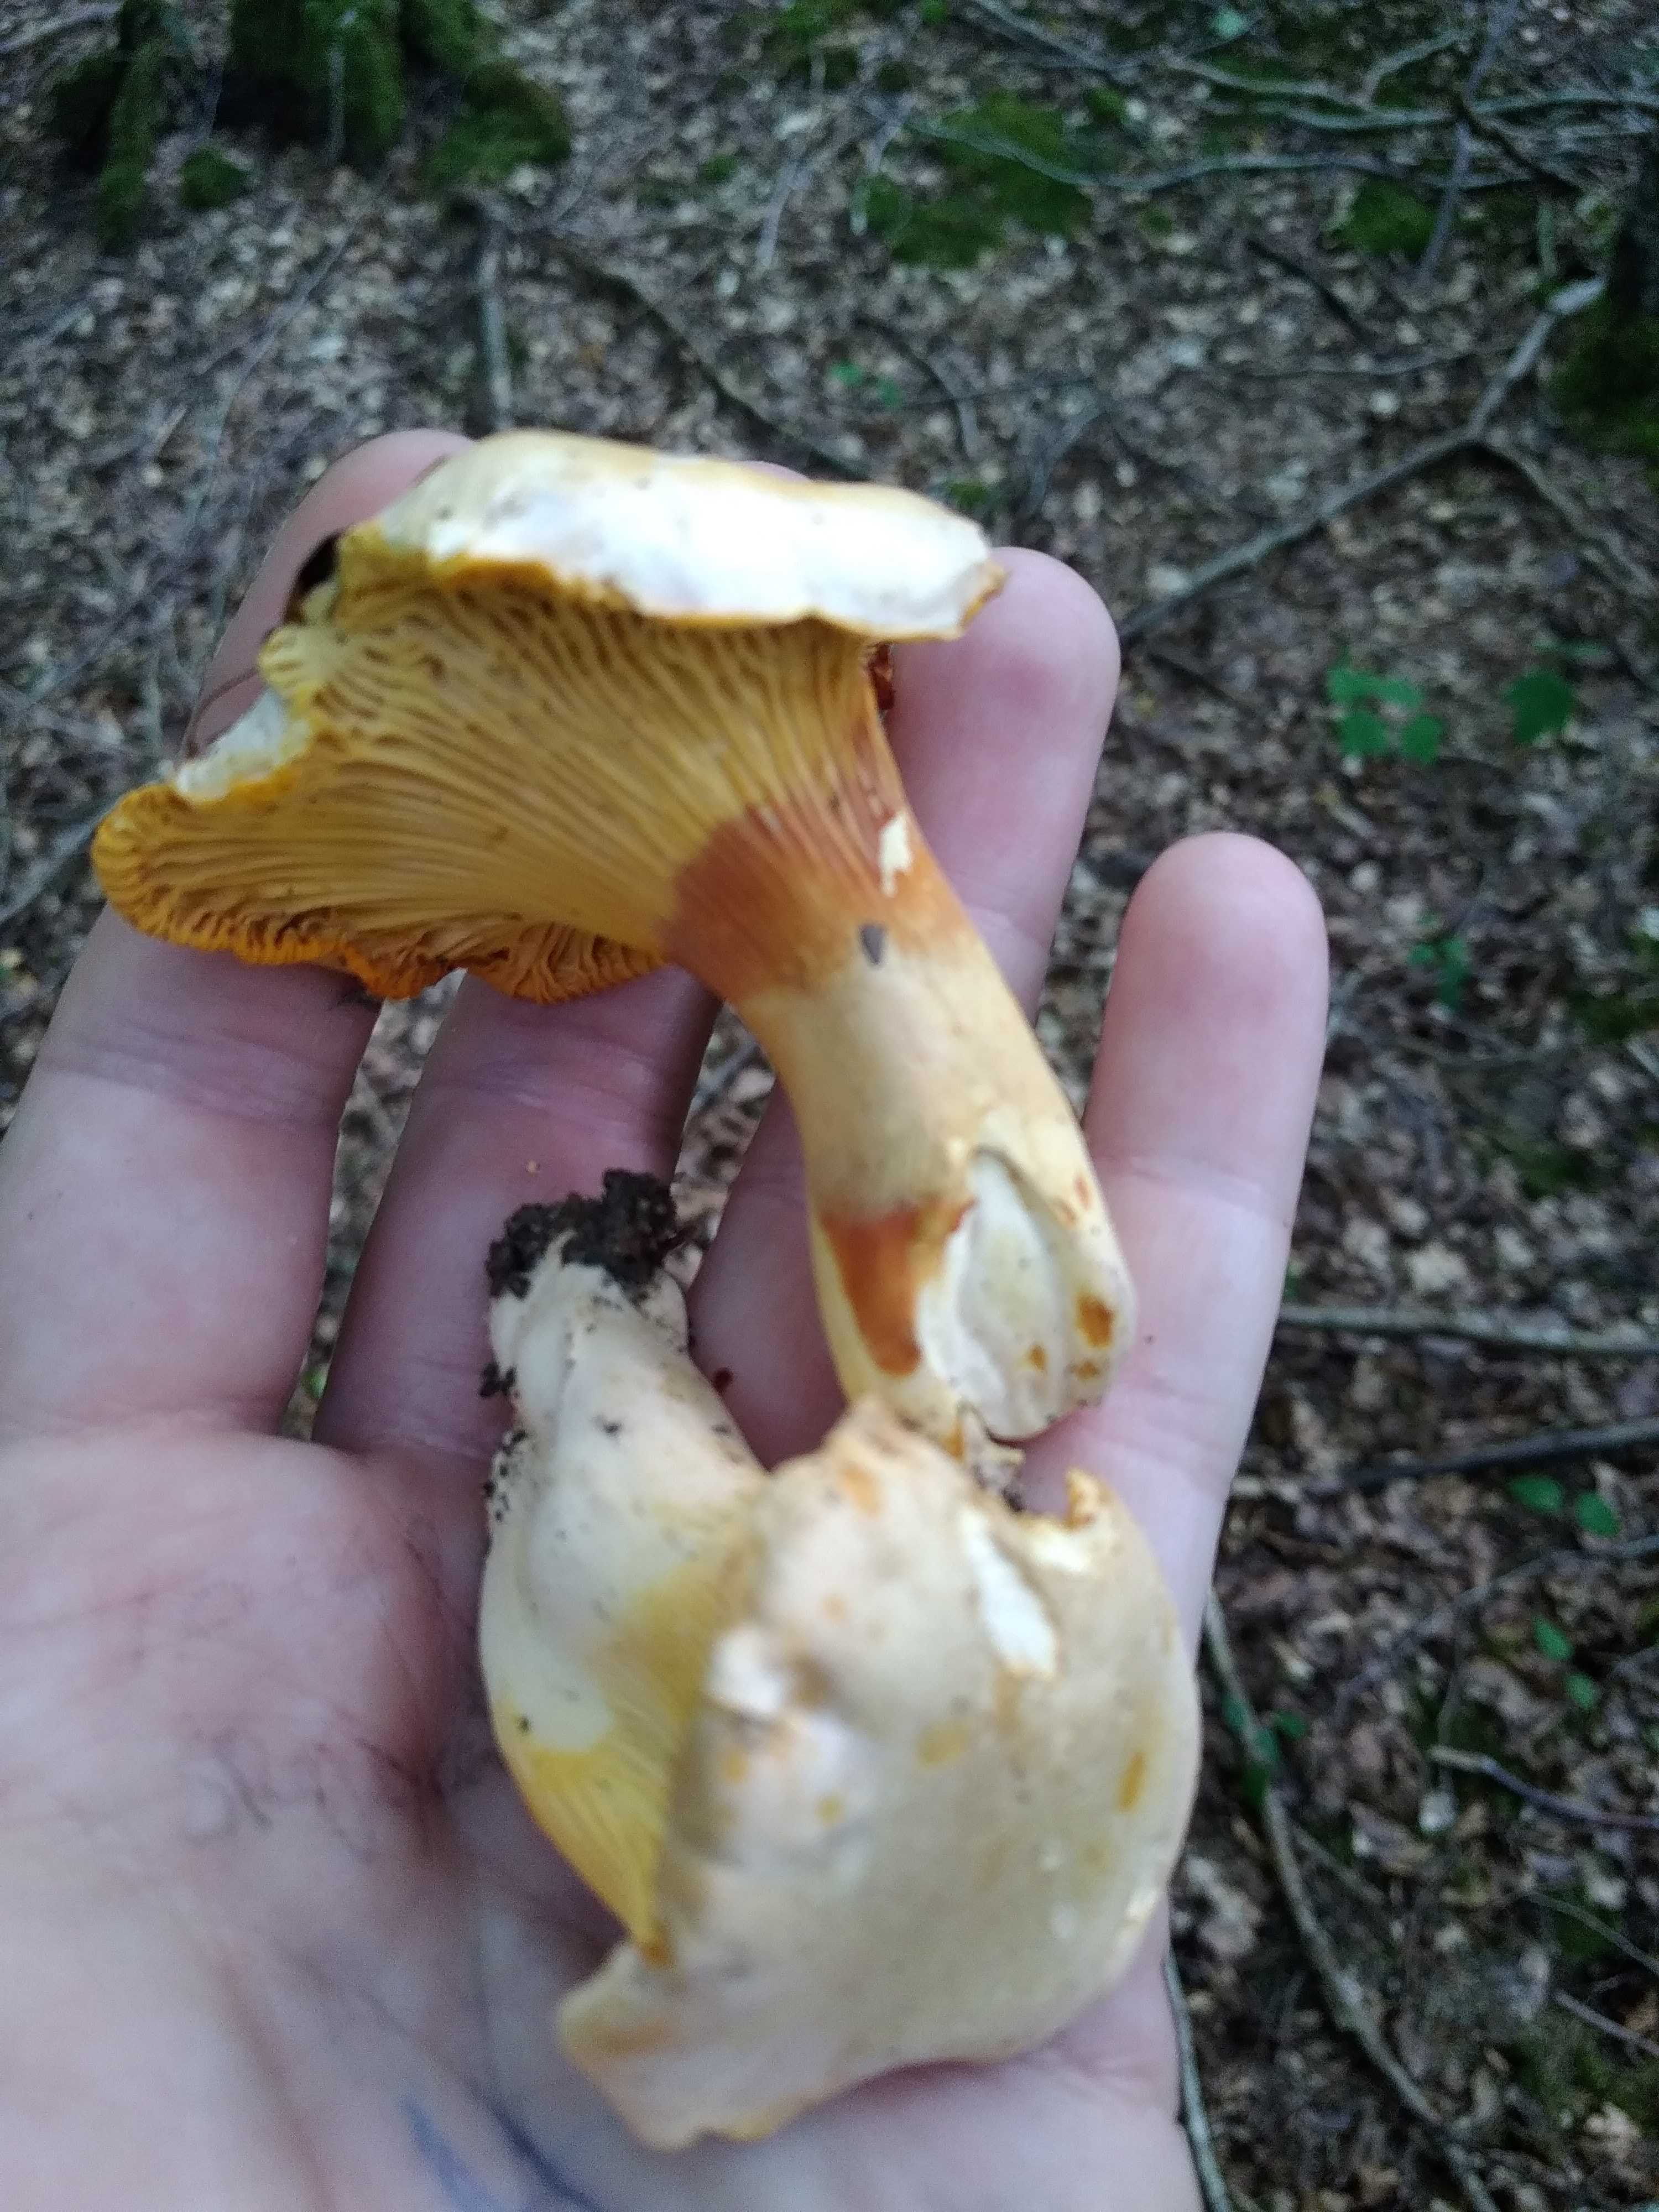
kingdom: Fungi
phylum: Basidiomycota
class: Agaricomycetes
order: Cantharellales
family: Hydnaceae
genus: Cantharellus
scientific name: Cantharellus pallens
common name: bleg kantarel
